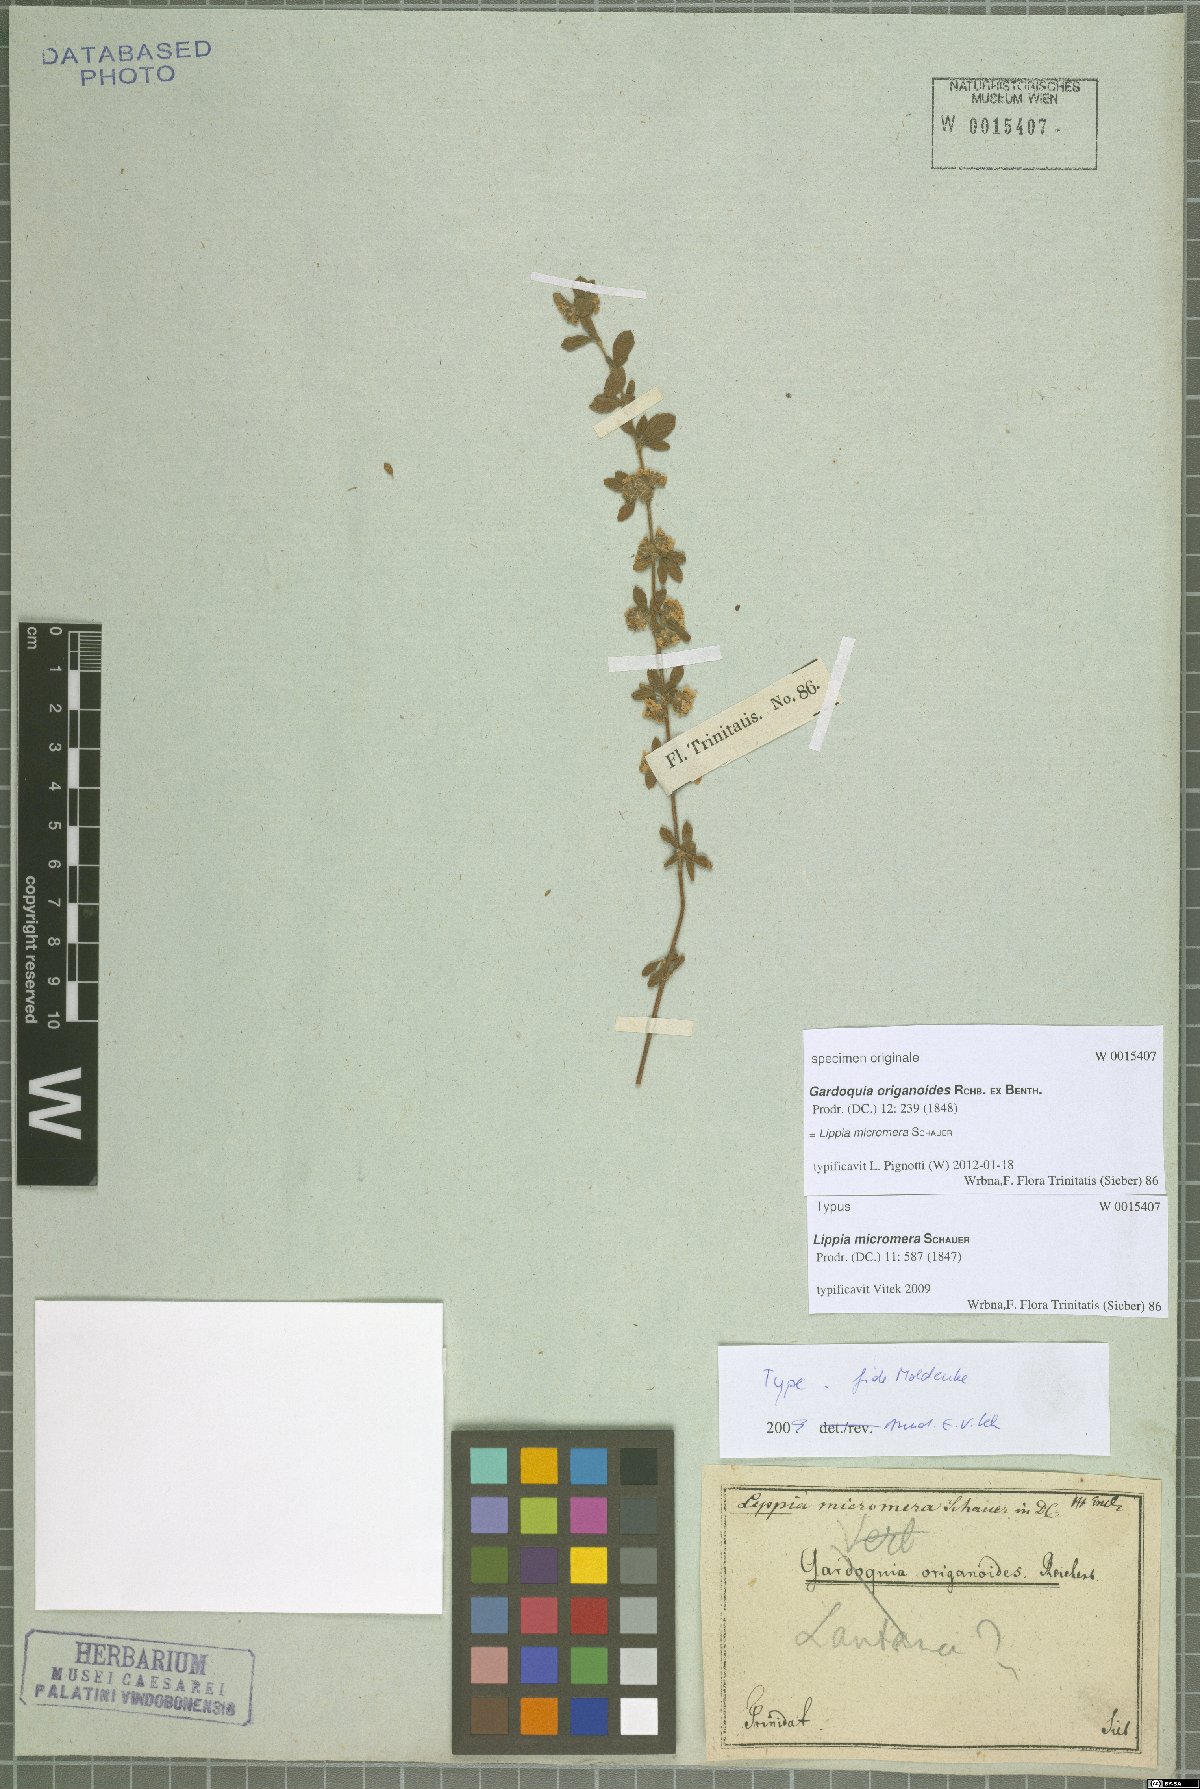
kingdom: Plantae
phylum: Tracheophyta
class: Magnoliopsida
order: Lamiales
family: Verbenaceae
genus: Lippia
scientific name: Lippia micromera
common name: Puerto rican oregano
